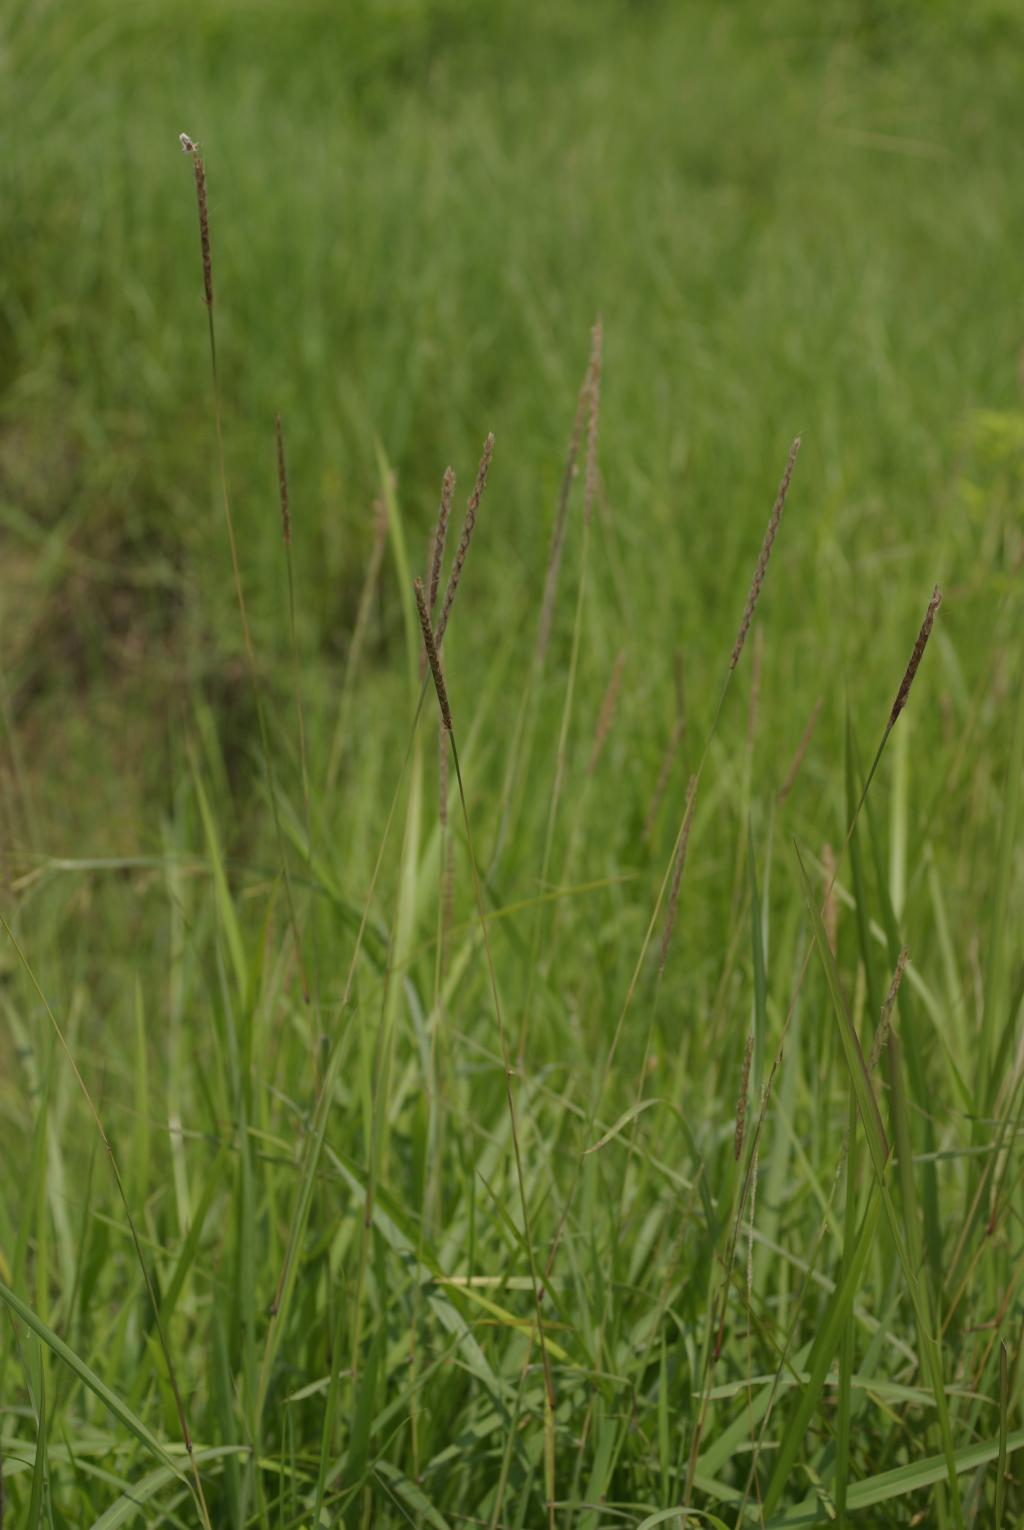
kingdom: Plantae
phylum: Tracheophyta
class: Liliopsida
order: Poales
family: Poaceae
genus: Ischaemum
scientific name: Ischaemum barbatum
